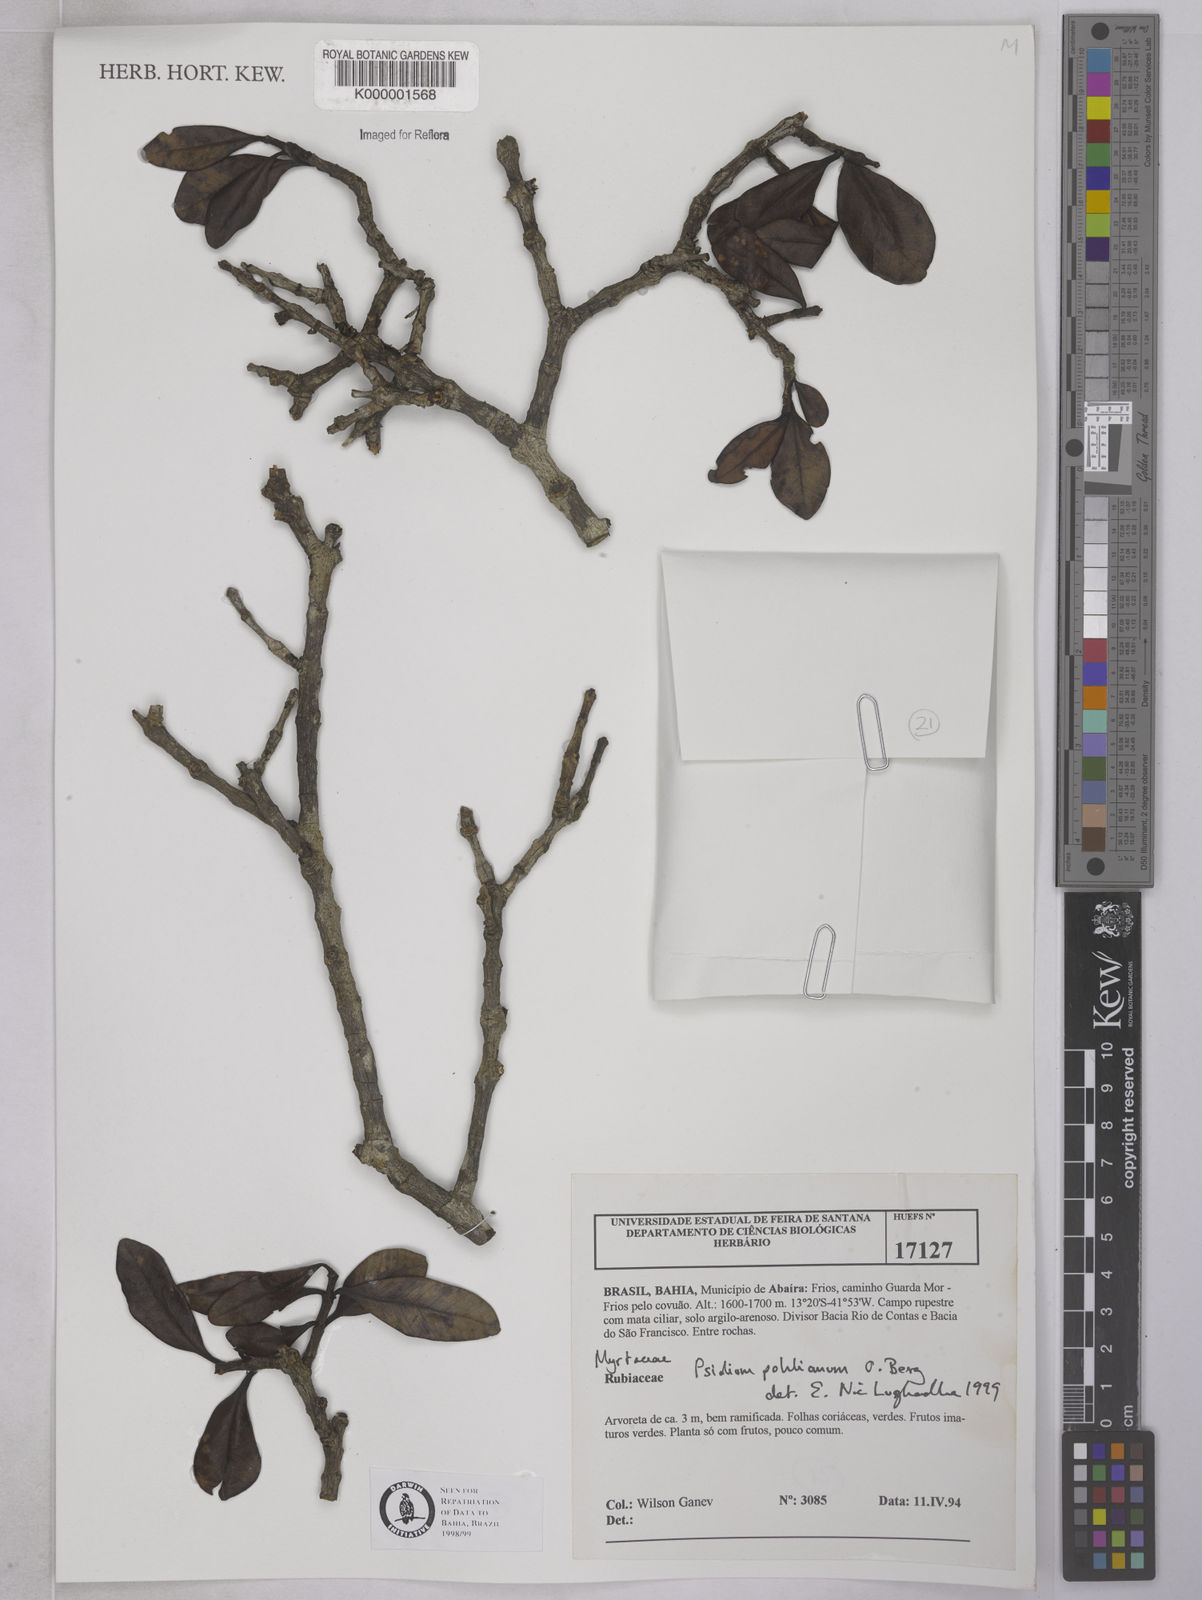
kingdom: Plantae
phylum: Tracheophyta
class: Magnoliopsida
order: Myrtales
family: Myrtaceae
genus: Psidium
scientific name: Psidium salutare
